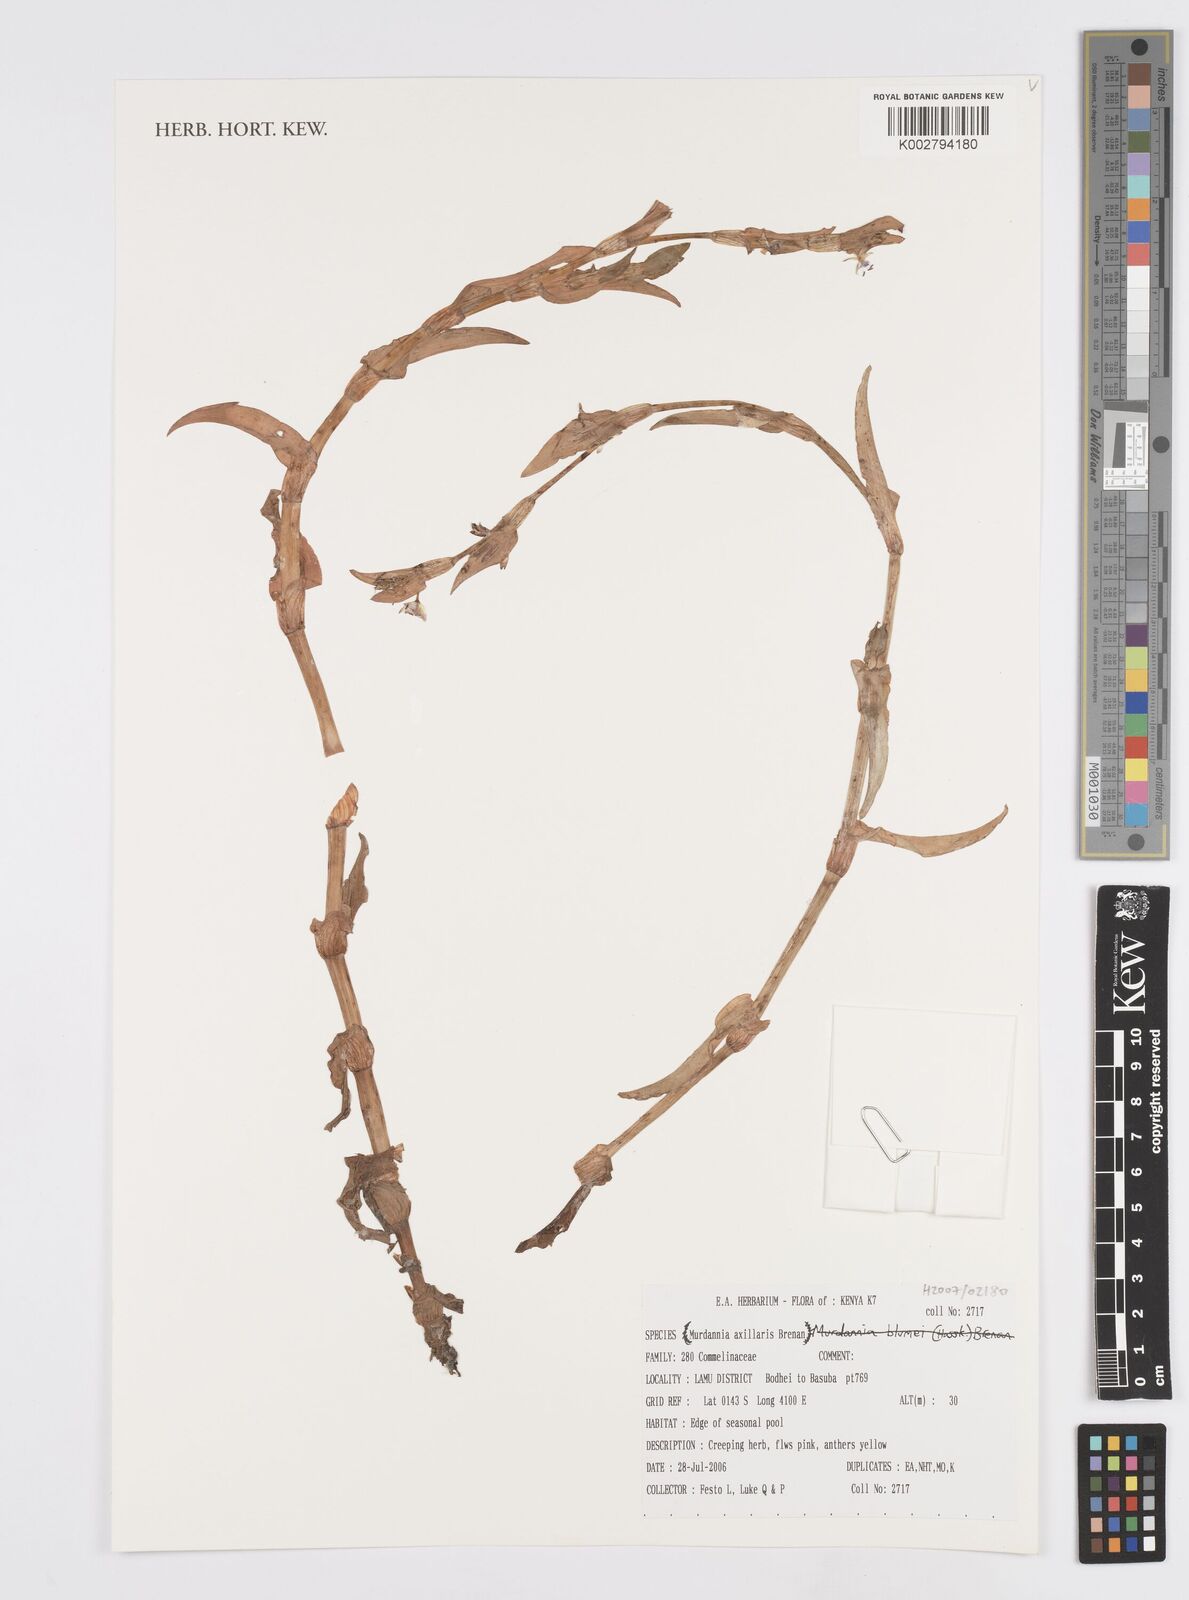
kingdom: Plantae
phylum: Tracheophyta
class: Liliopsida
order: Commelinales
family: Commelinaceae
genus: Murdannia
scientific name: Murdannia axillaris
